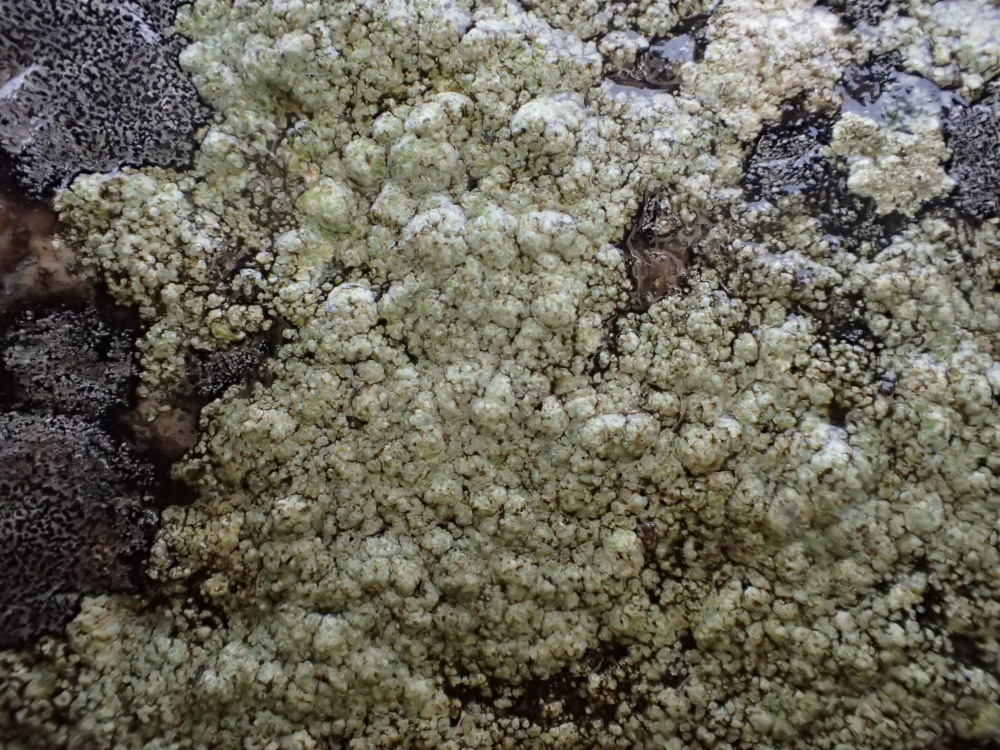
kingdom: Fungi
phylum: Ascomycota
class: Lecanoromycetes
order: Lecanorales
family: Lecanoraceae
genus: Lecidella
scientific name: Lecidella scabra
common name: skurvet skivelav
